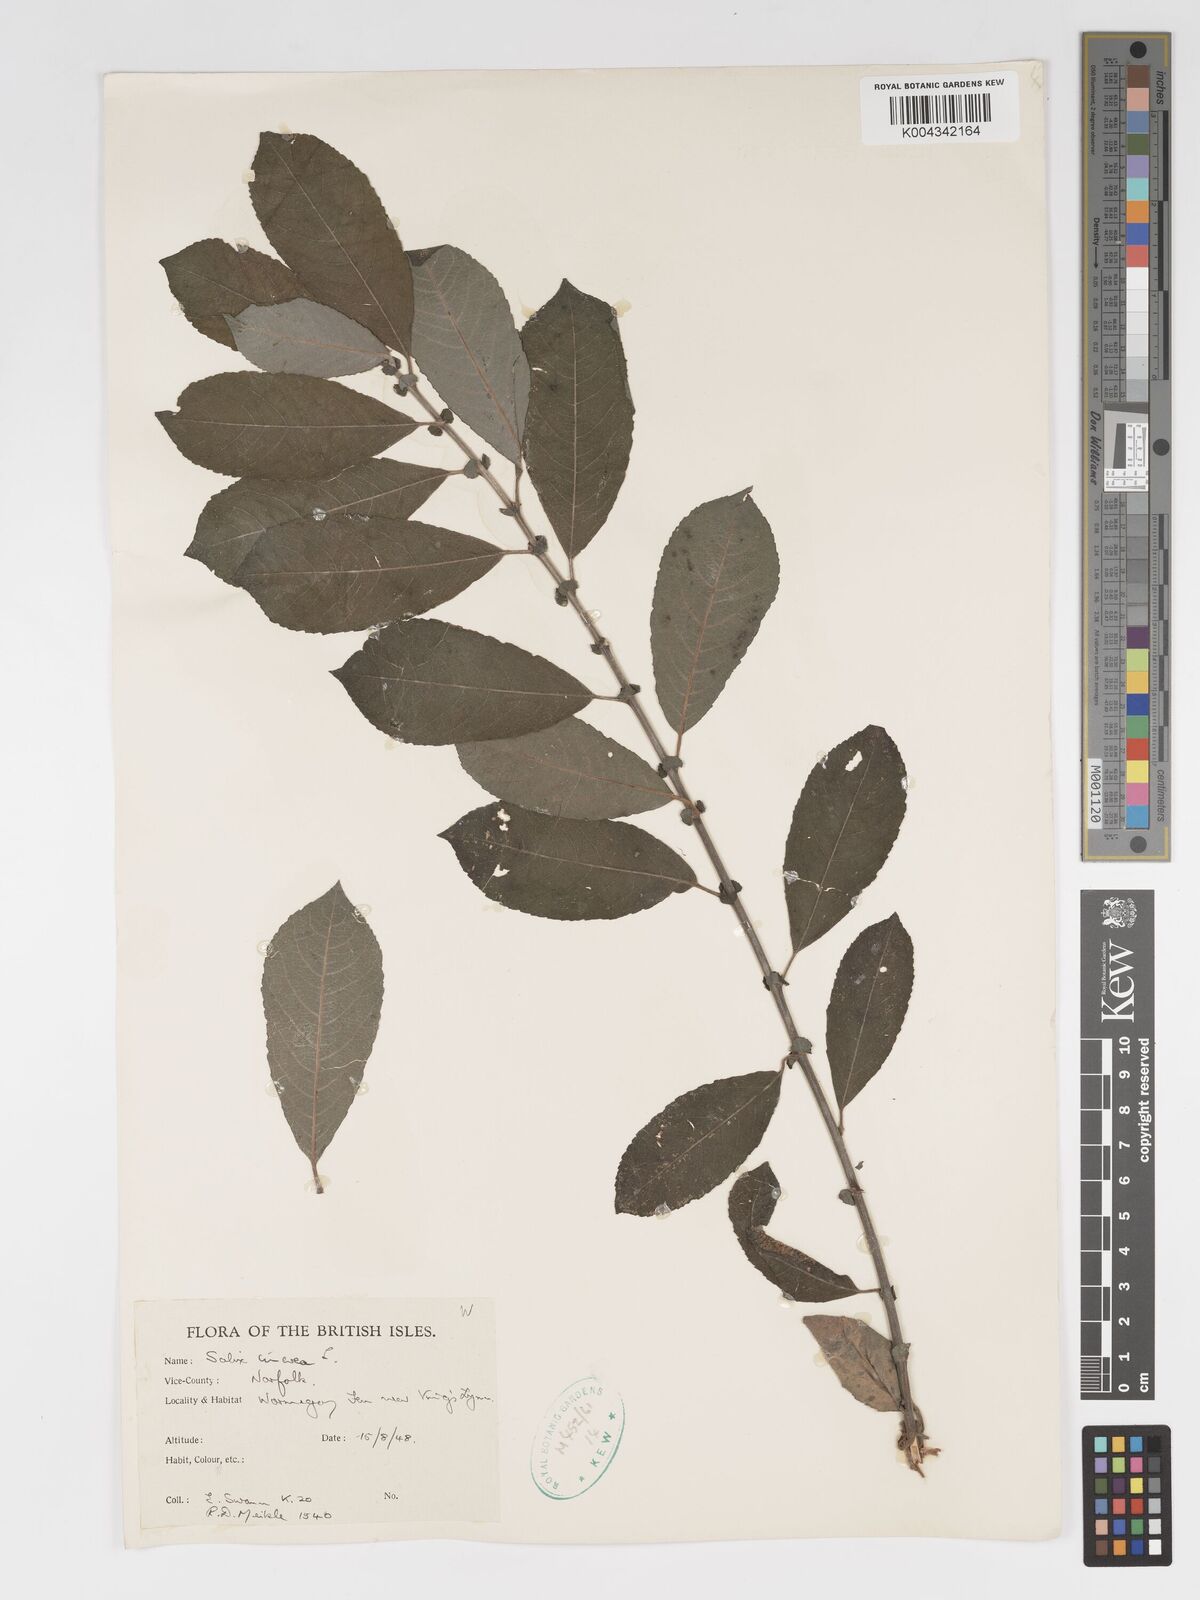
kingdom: Plantae
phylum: Tracheophyta
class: Magnoliopsida
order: Malpighiales
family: Salicaceae
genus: Salix
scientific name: Salix
